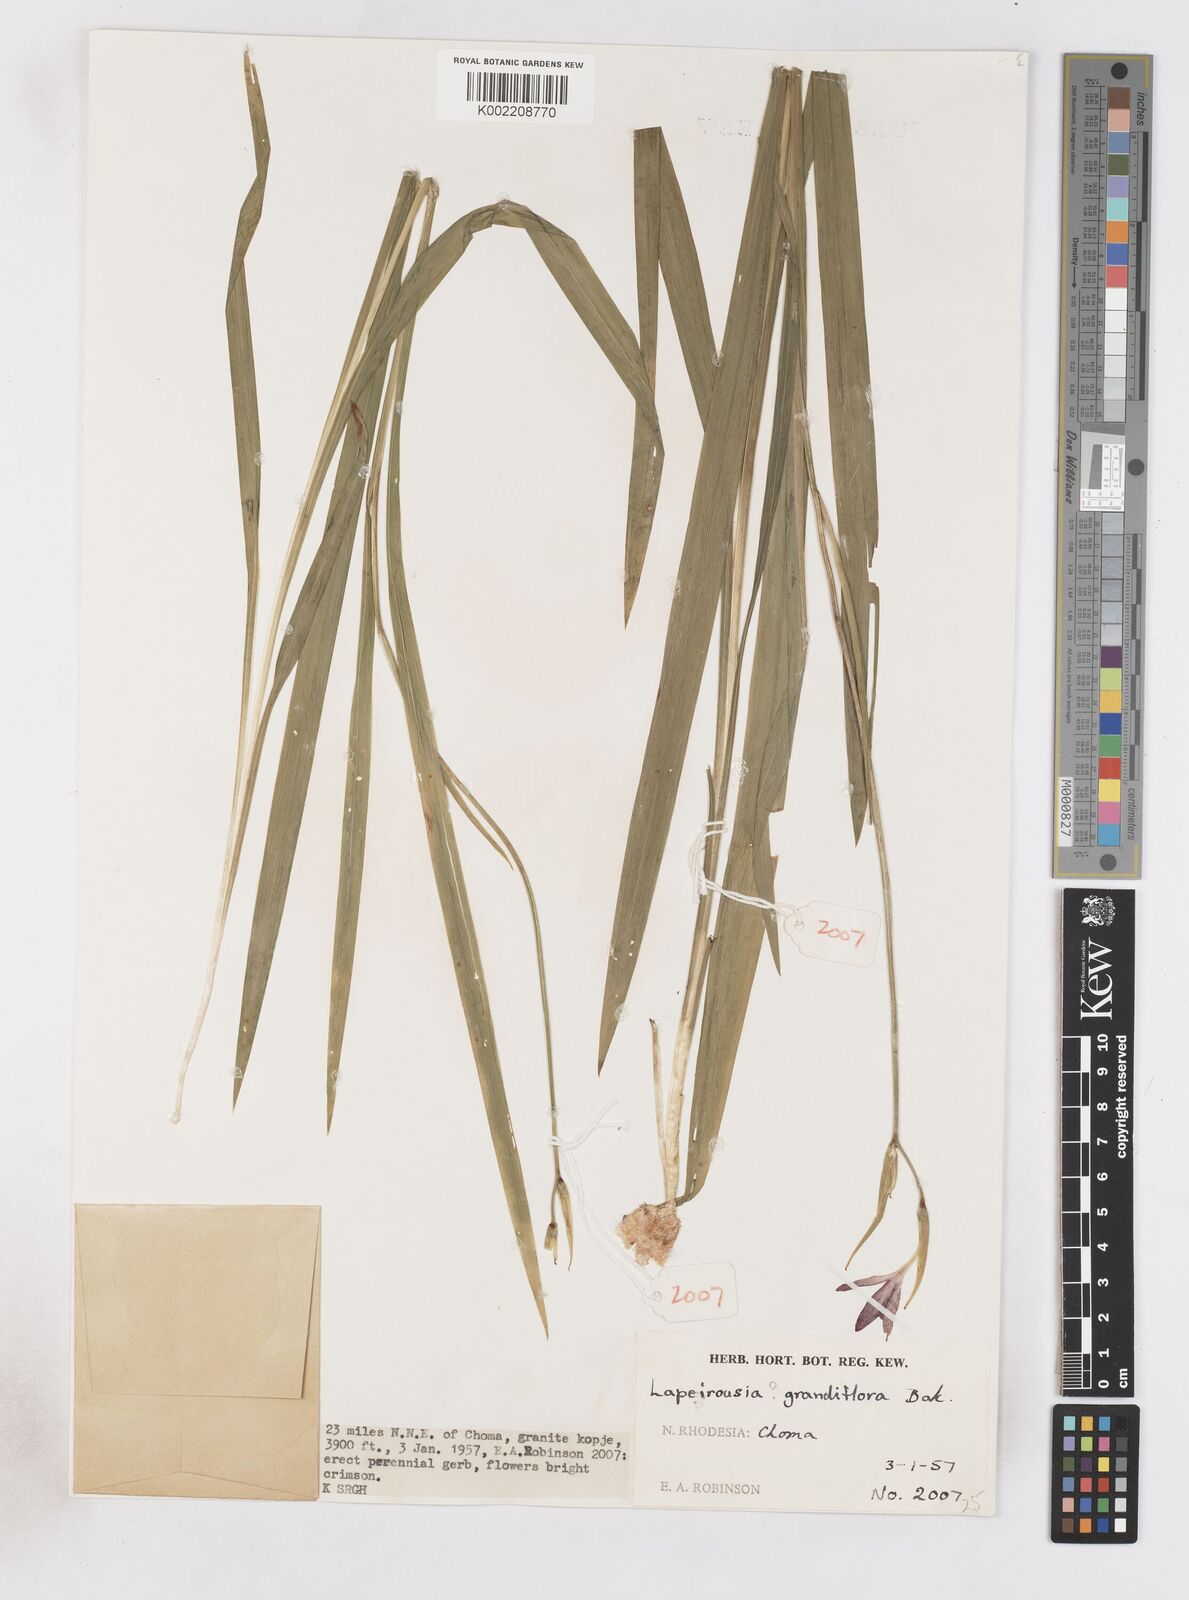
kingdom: Plantae
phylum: Tracheophyta
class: Liliopsida
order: Asparagales
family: Iridaceae
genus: Freesia
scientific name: Freesia grandiflora
